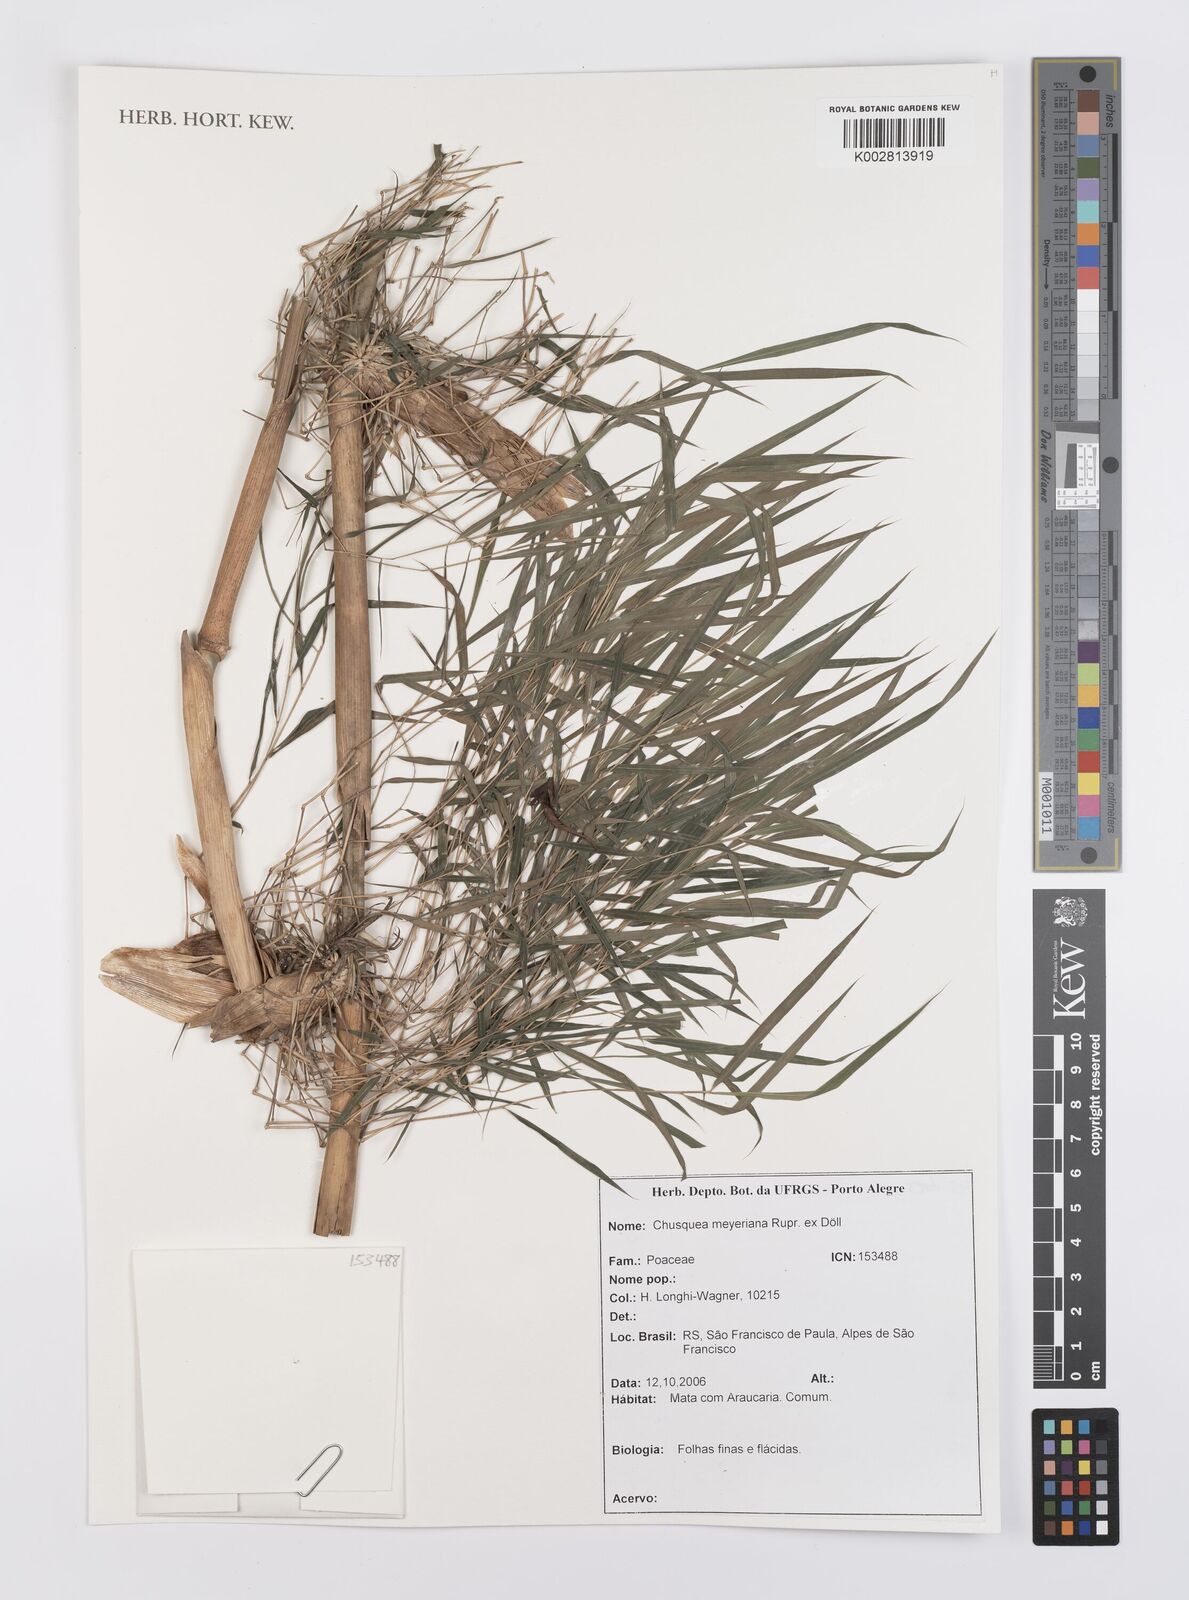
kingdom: Plantae
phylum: Tracheophyta
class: Liliopsida
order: Poales
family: Poaceae
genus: Chusquea
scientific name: Chusquea meyeriana
